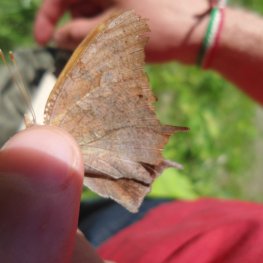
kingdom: Animalia
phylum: Arthropoda
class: Insecta
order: Lepidoptera
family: Nymphalidae
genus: Polygonia
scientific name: Polygonia interrogationis
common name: Question Mark
